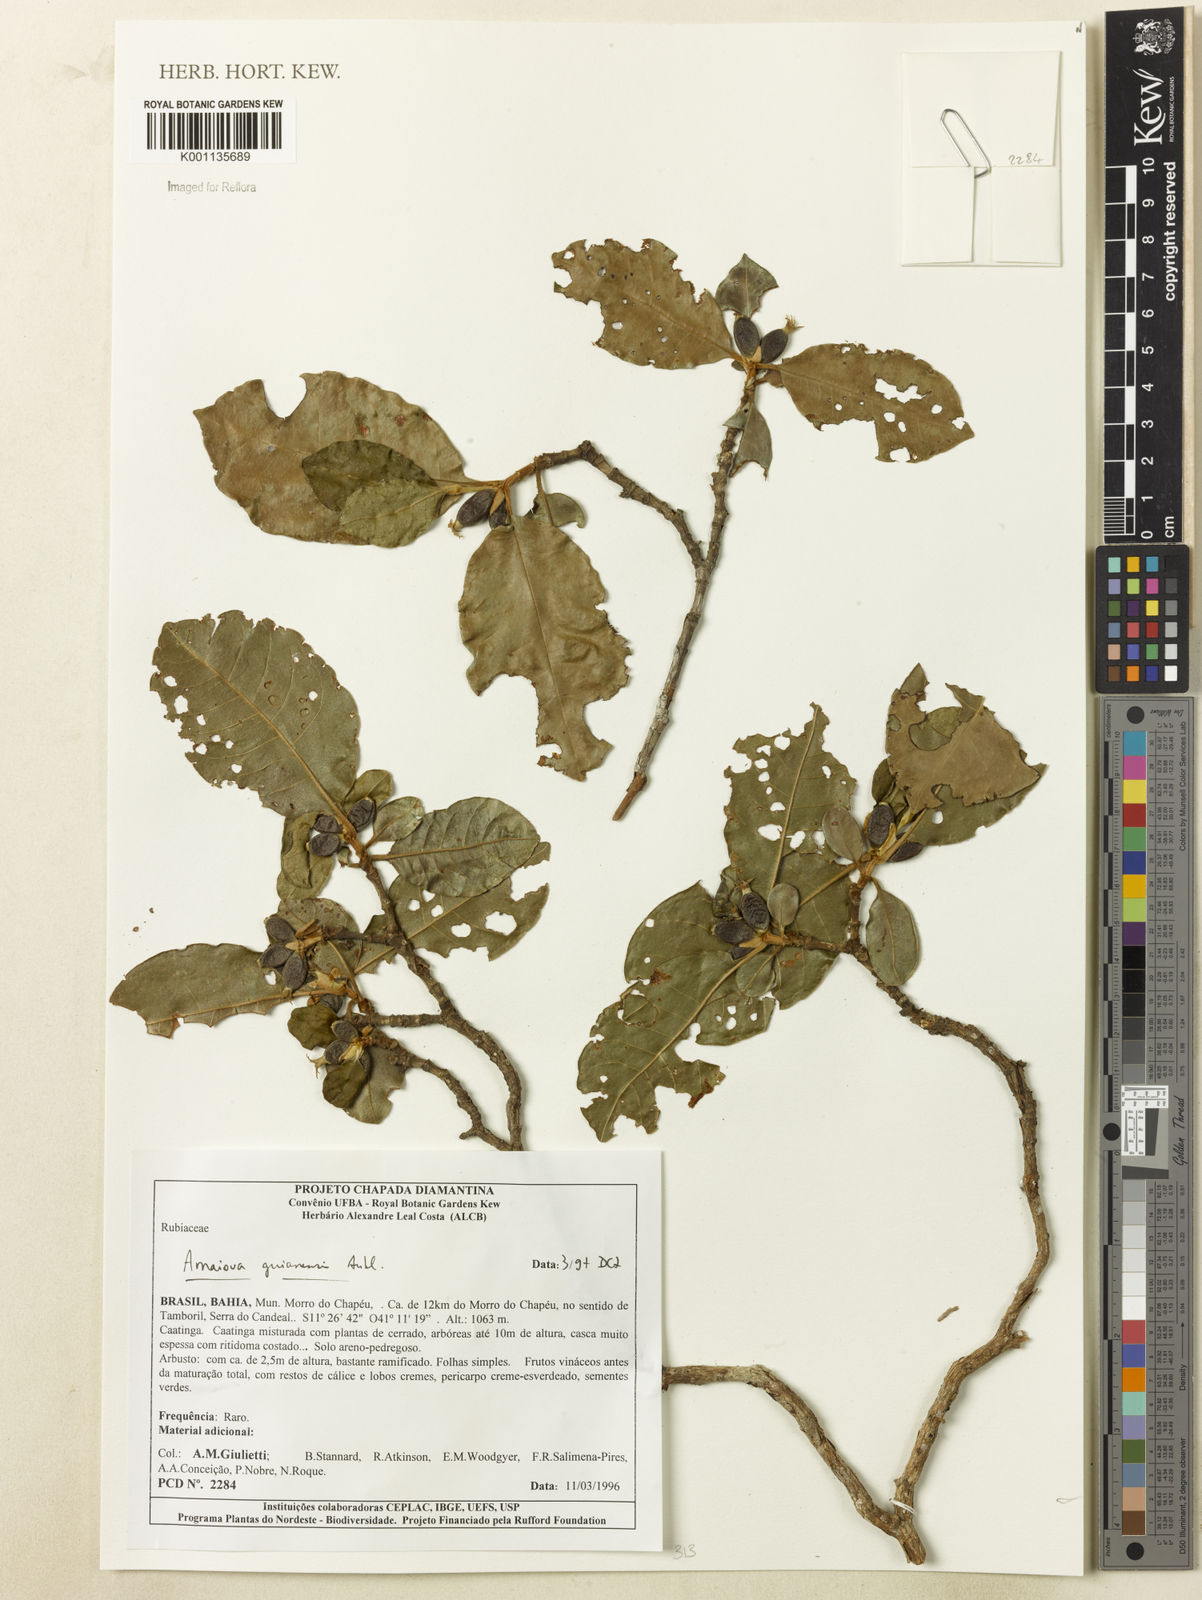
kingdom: Plantae
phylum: Tracheophyta
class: Magnoliopsida
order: Gentianales
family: Rubiaceae
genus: Amaioua
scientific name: Amaioua guianensis
